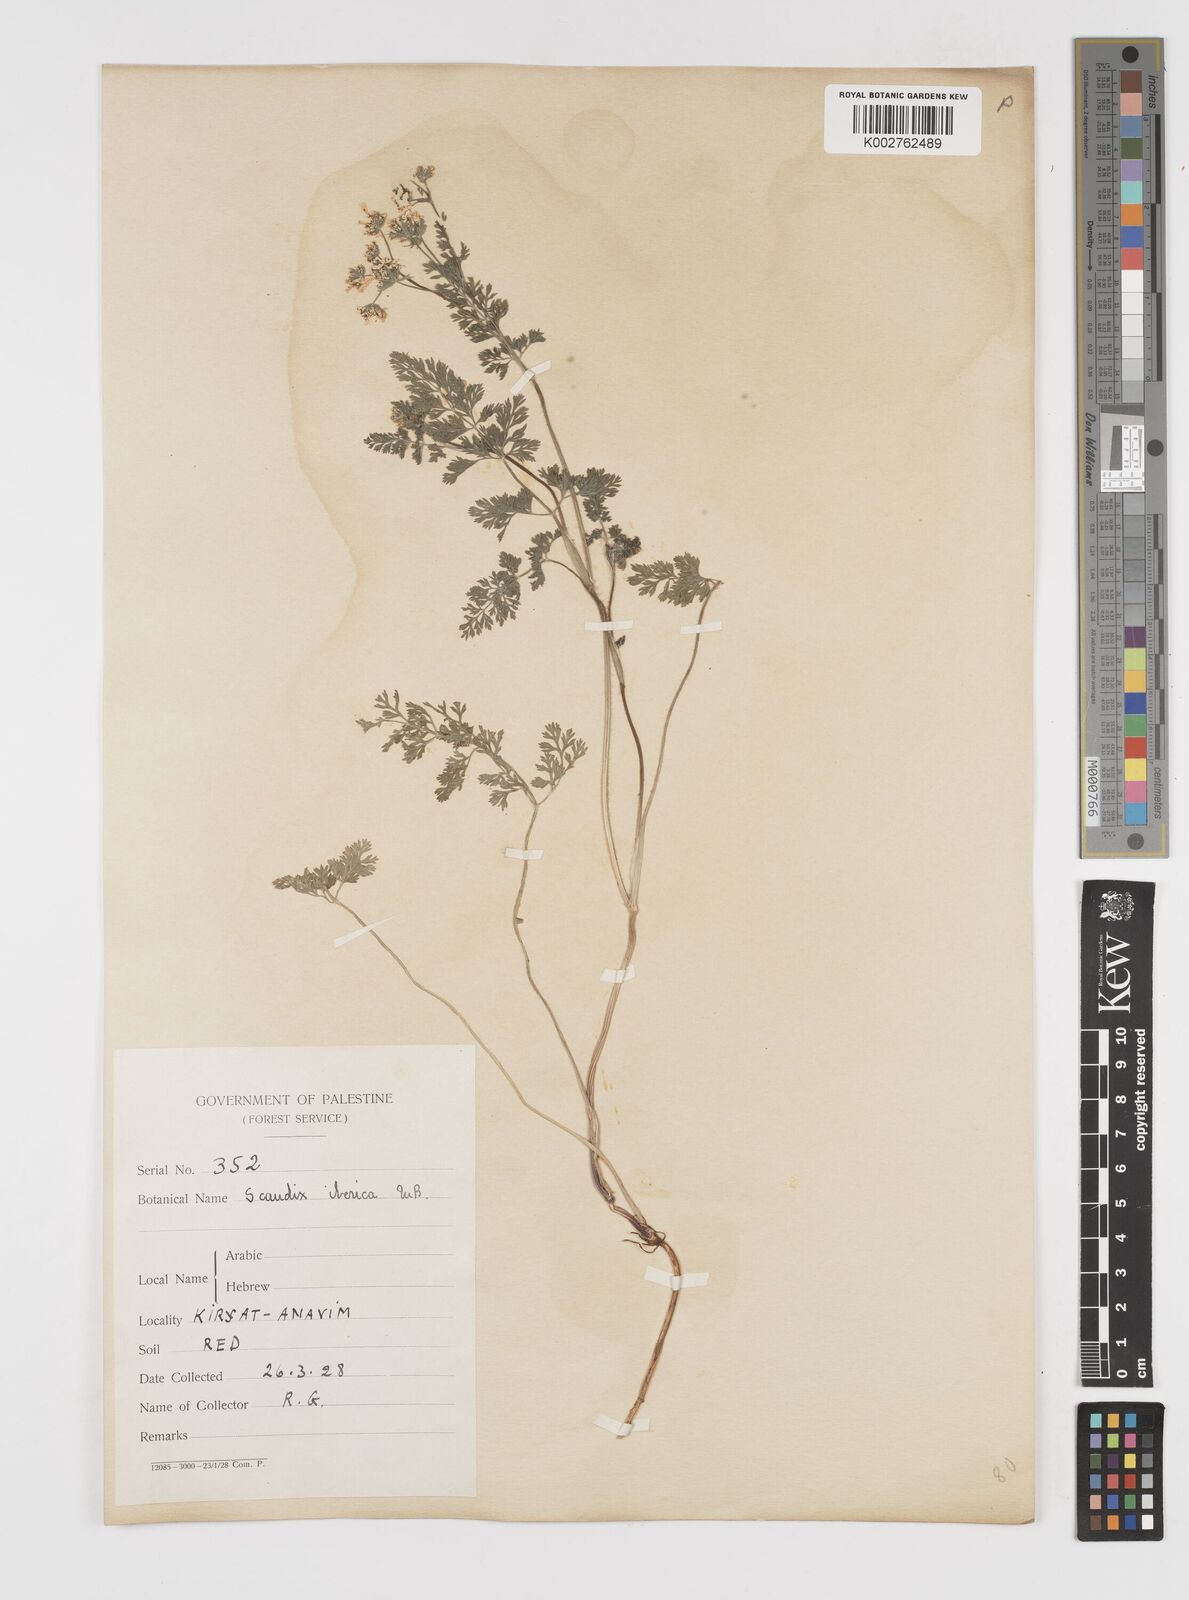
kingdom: Plantae
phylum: Tracheophyta
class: Magnoliopsida
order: Apiales
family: Apiaceae
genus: Scandix
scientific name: Scandix iberica
